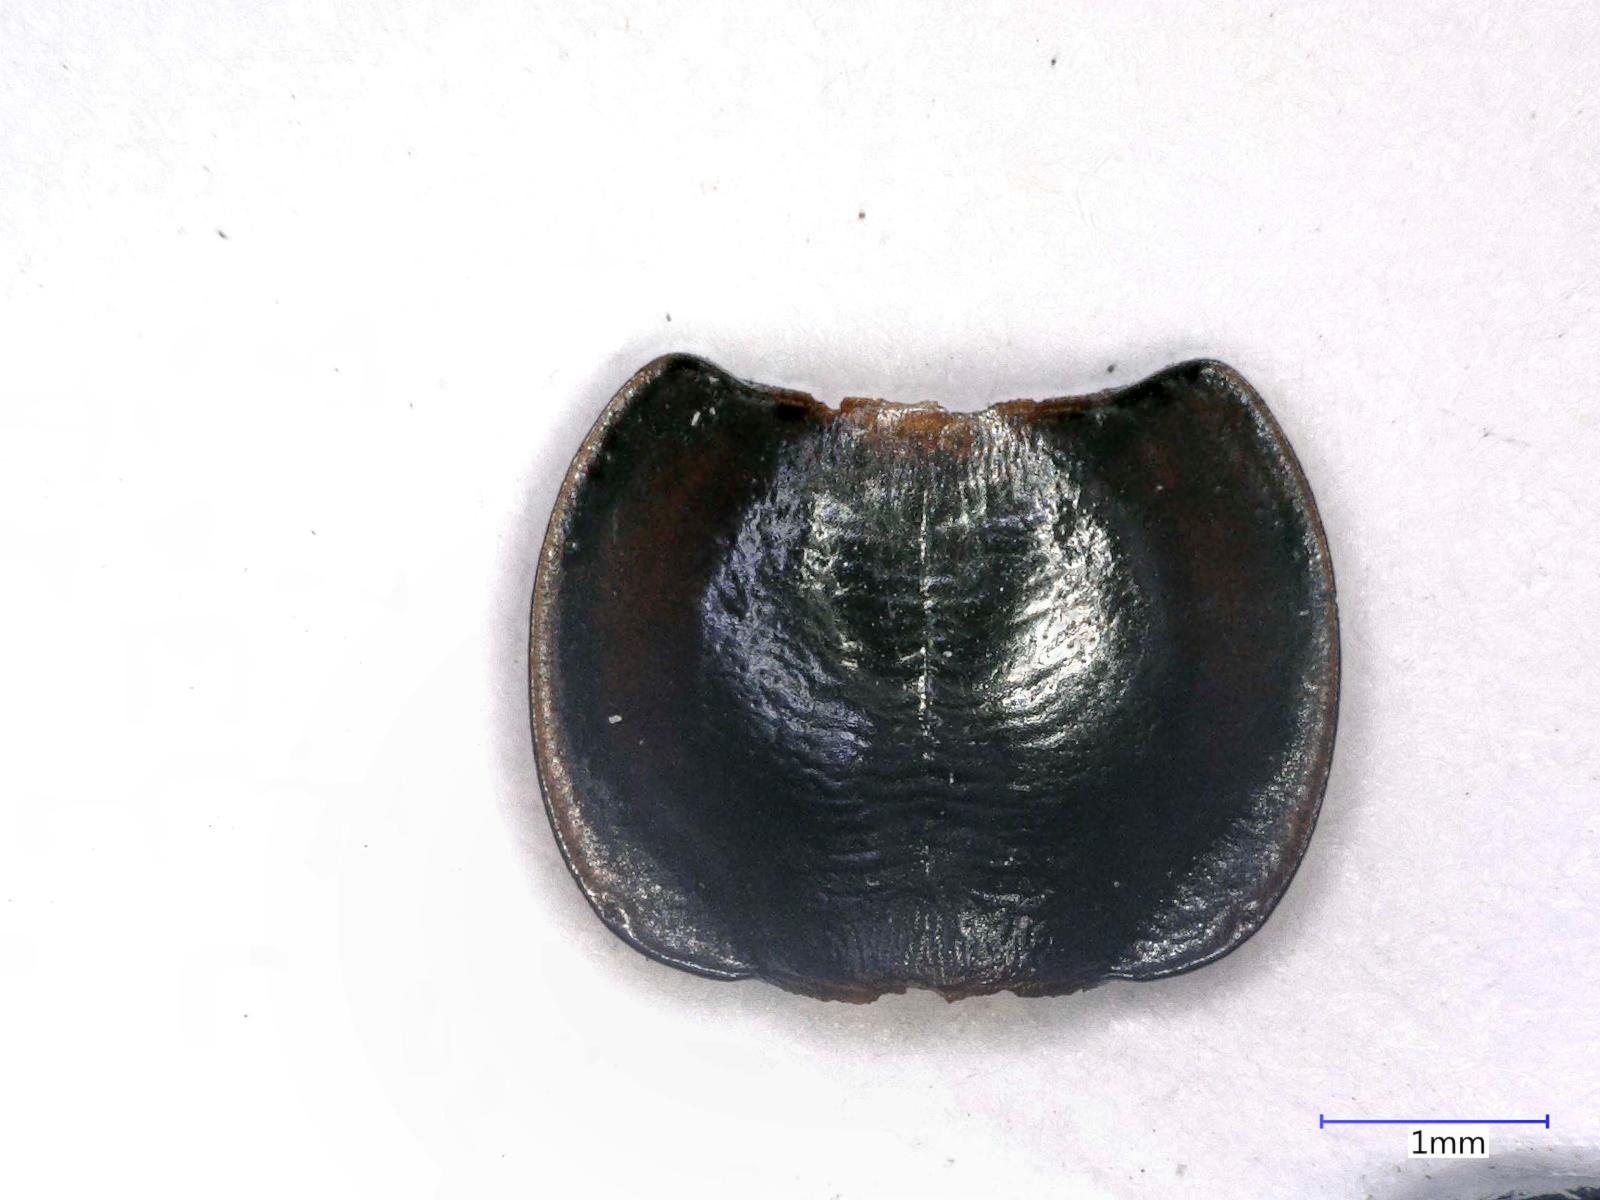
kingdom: Animalia
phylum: Arthropoda
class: Insecta
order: Coleoptera
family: Carabidae
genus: Tanystoma
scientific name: Tanystoma maculicolle
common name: Tule beetle
